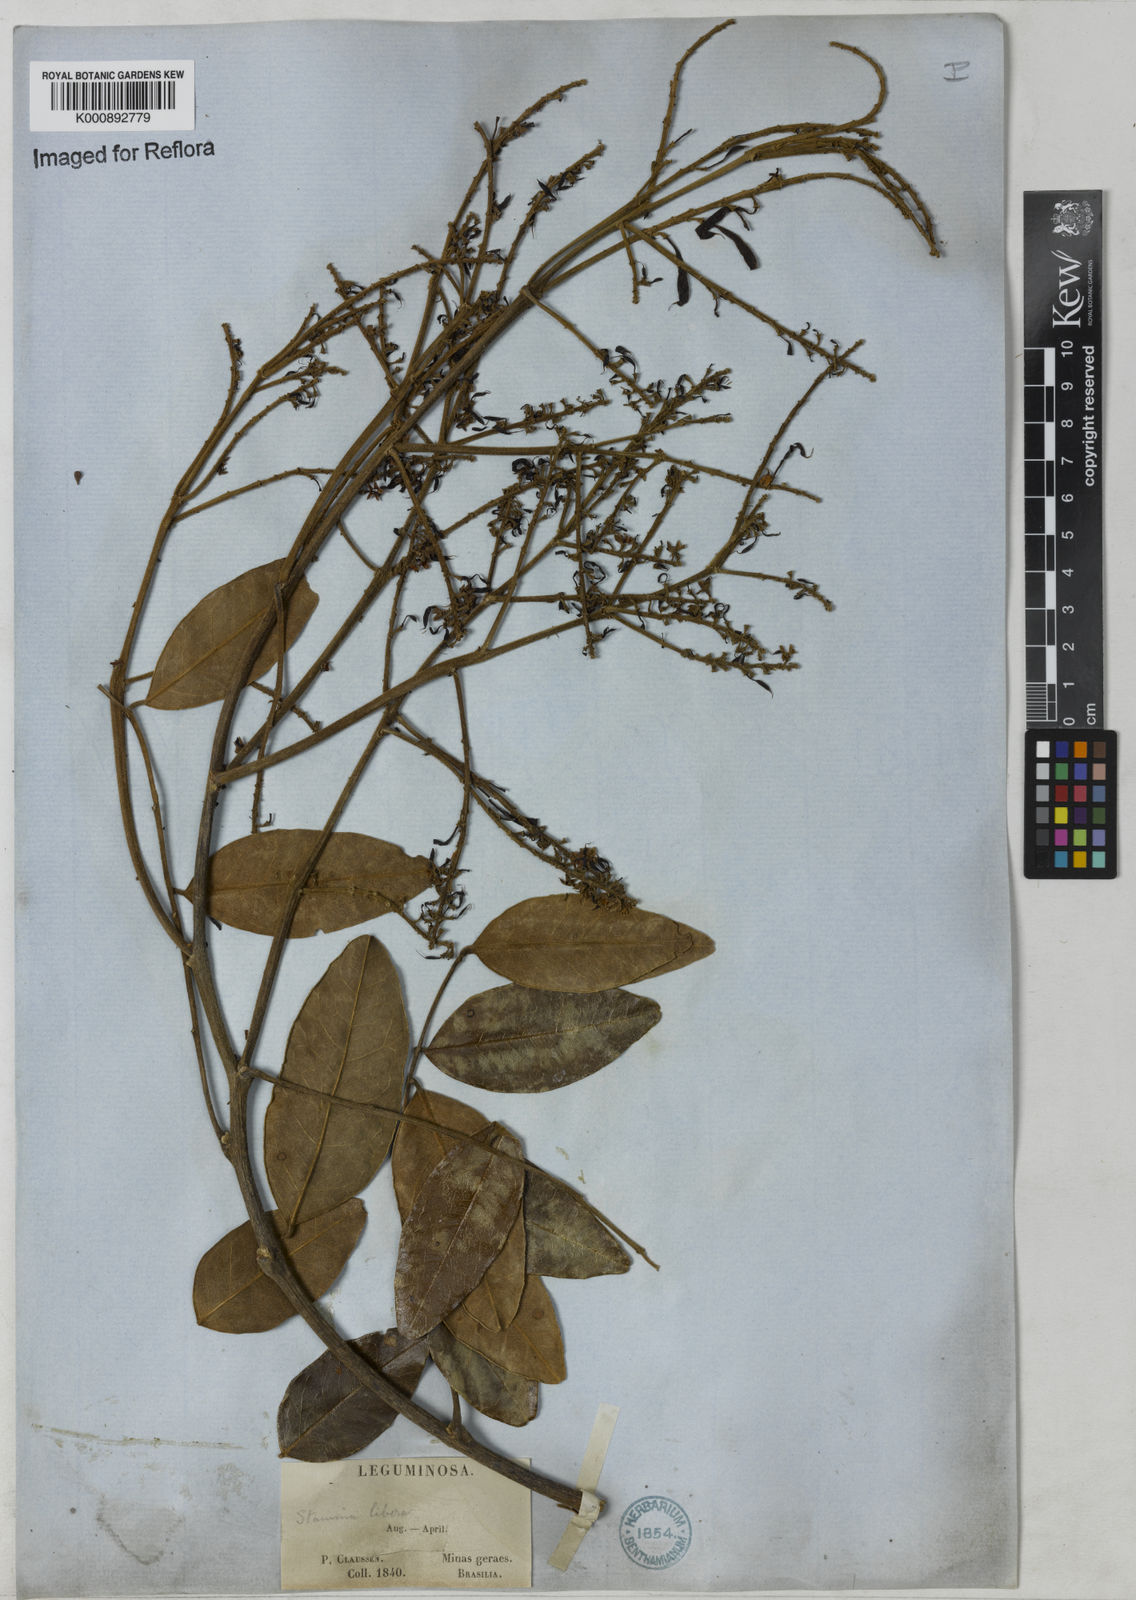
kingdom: Plantae
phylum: Tracheophyta
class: Magnoliopsida
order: Fabales
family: Fabaceae
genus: Leptolobium
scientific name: Leptolobium
